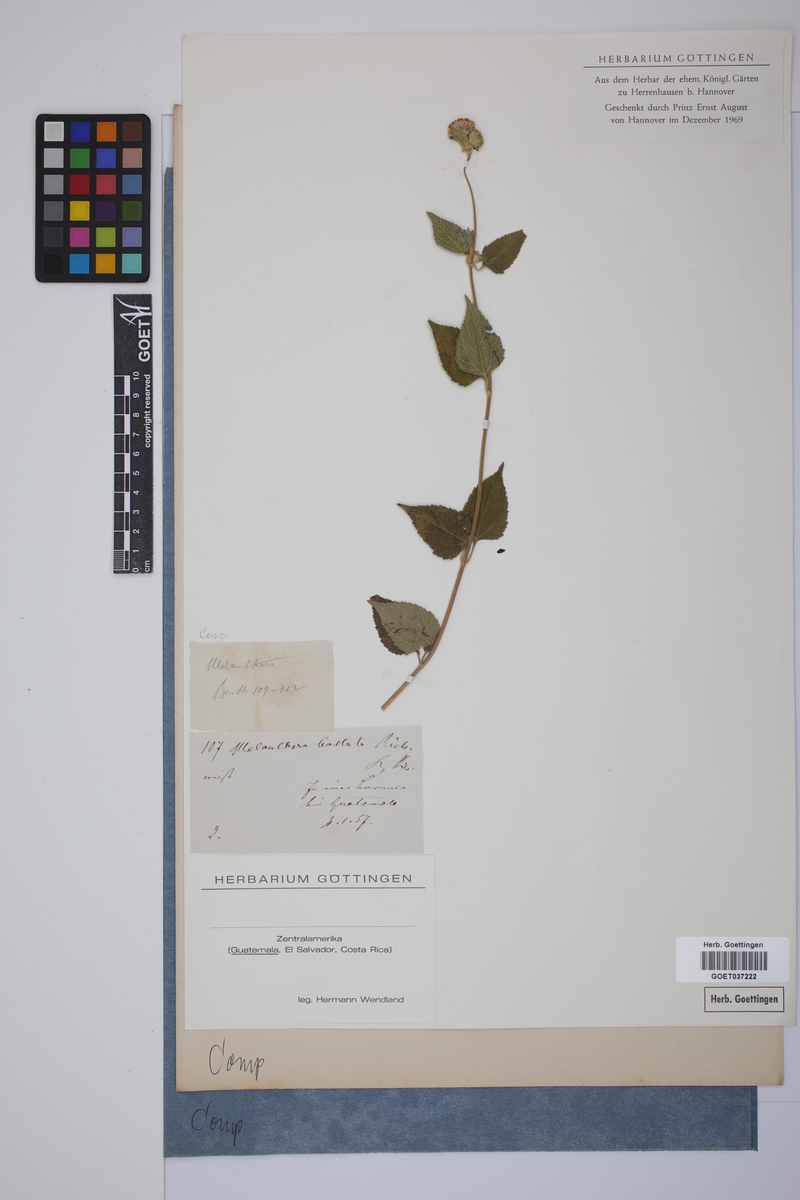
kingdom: Plantae
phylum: Tracheophyta
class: Magnoliopsida
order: Asterales
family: Asteraceae
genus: Melanthera
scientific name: Melanthera nivea
